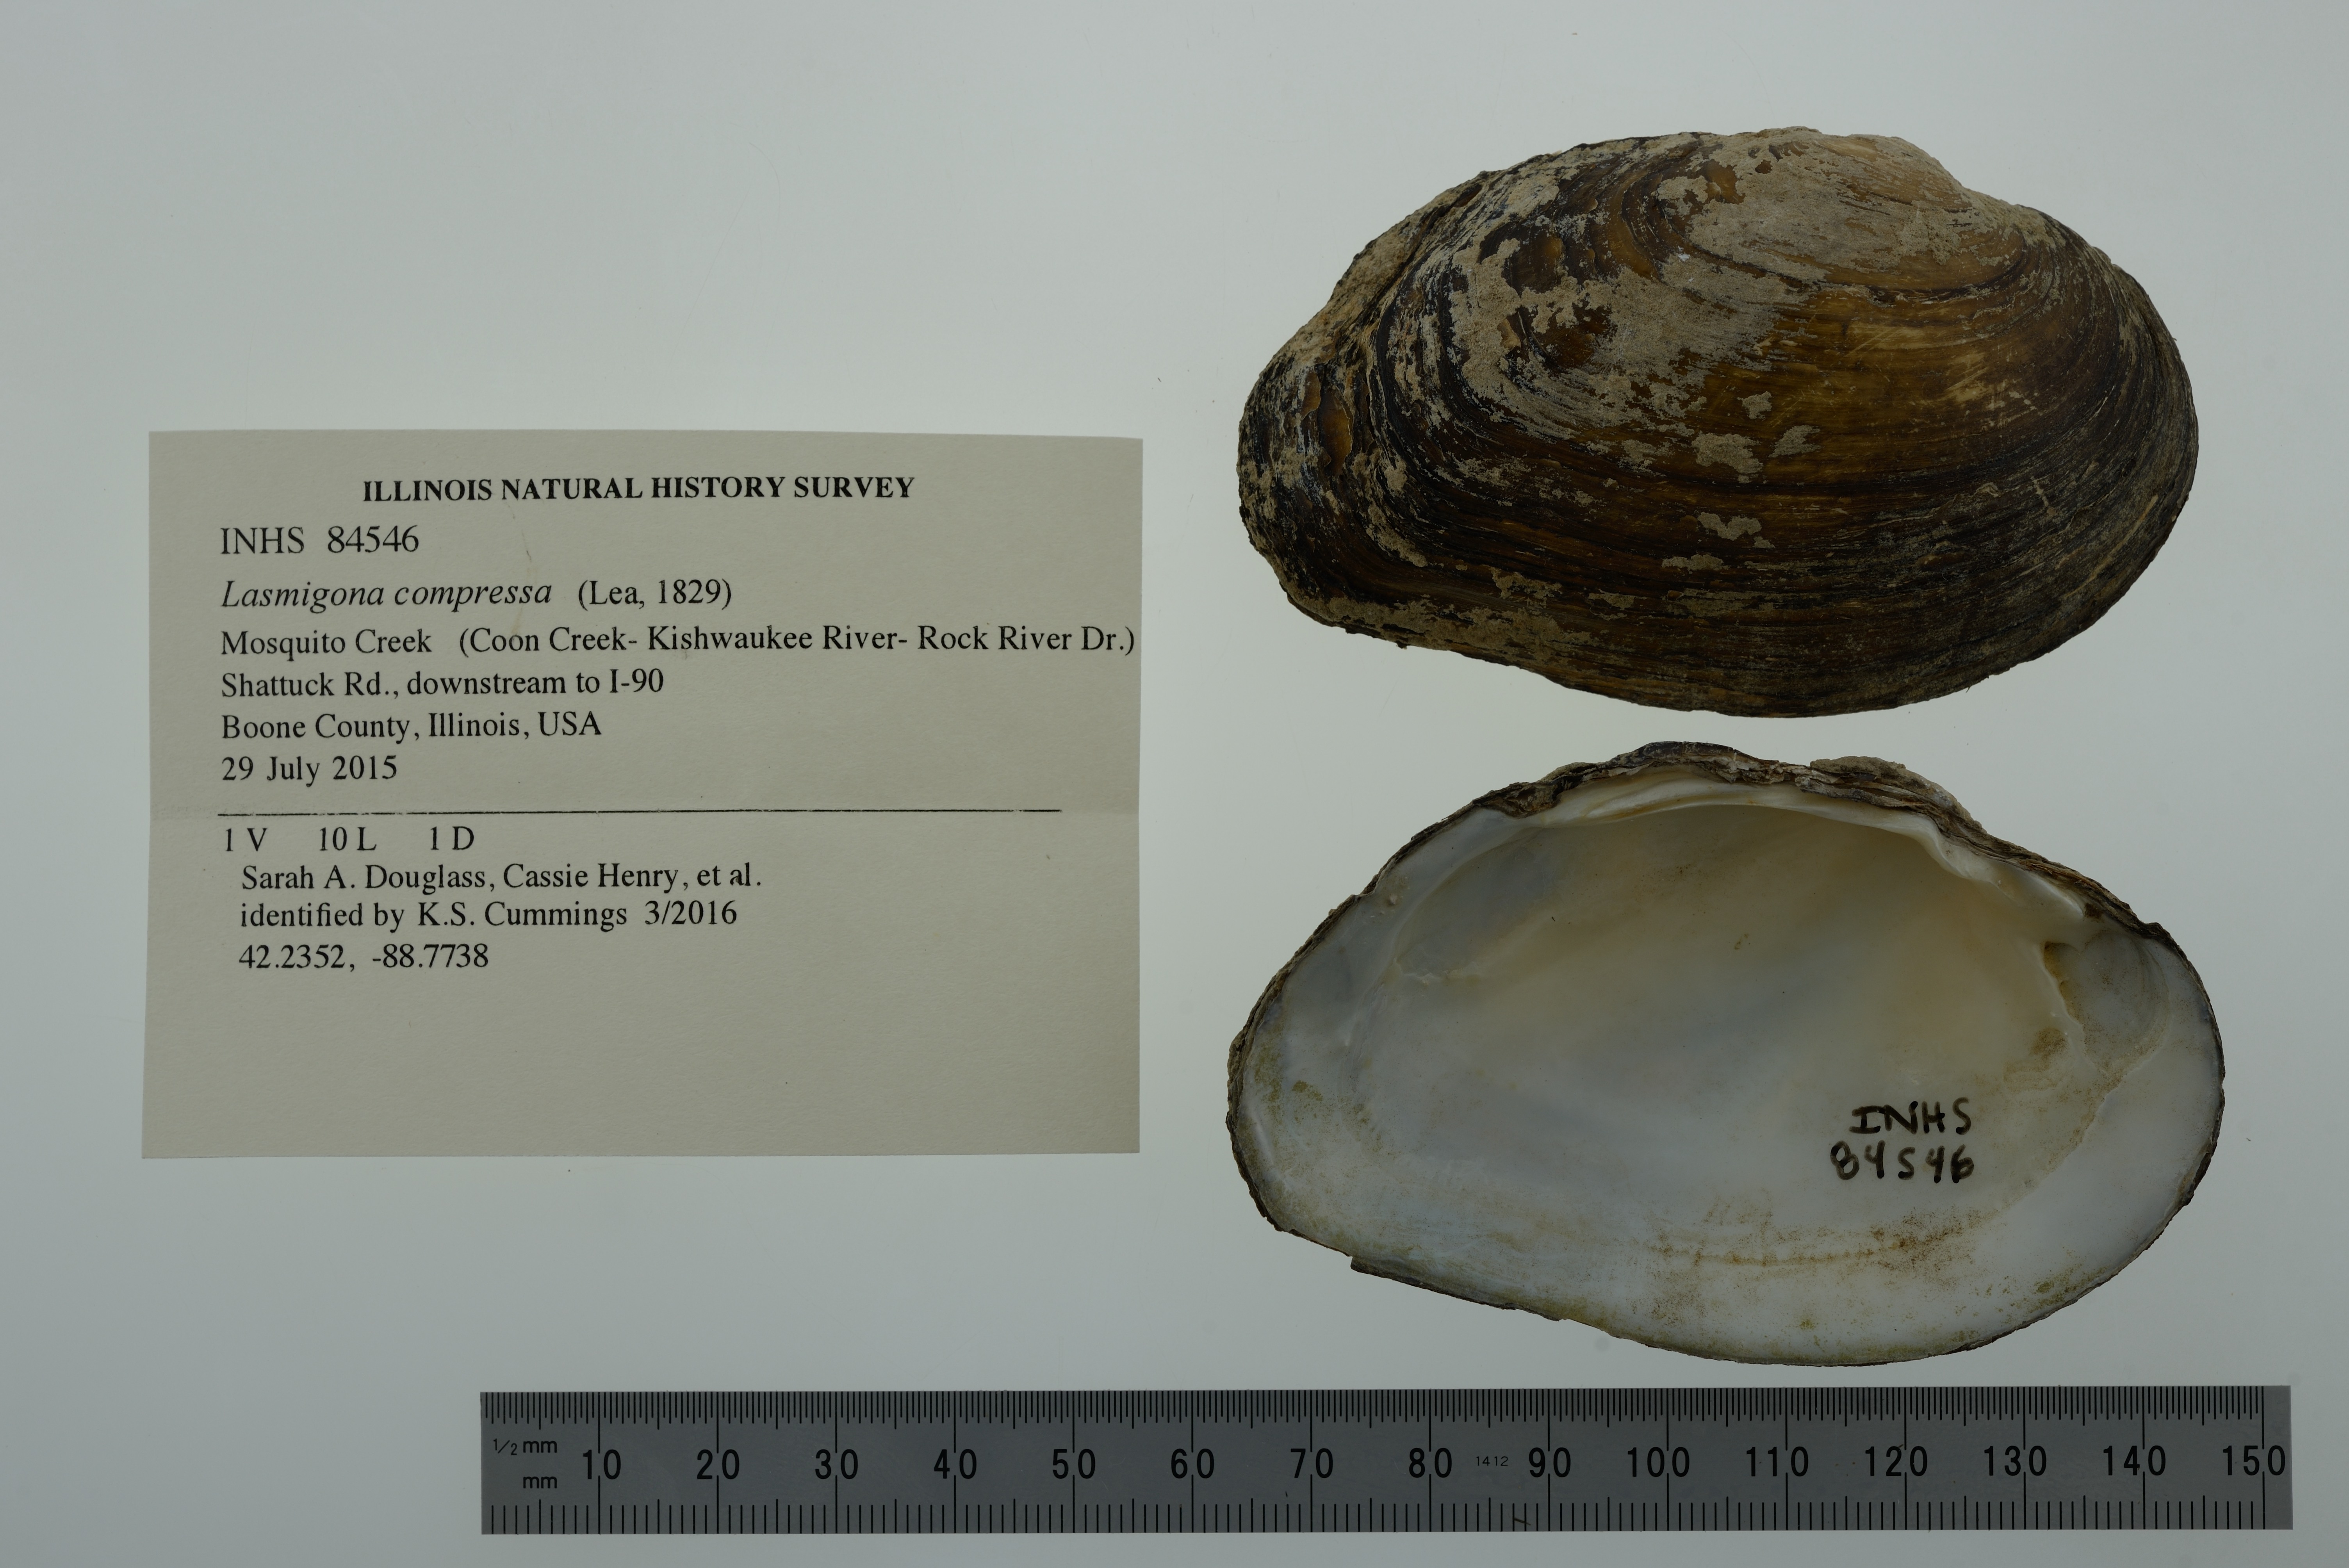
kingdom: Animalia
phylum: Mollusca
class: Bivalvia
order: Unionida
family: Unionidae
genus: Lasmigona
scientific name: Lasmigona compressa
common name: Creek heelsplitter
